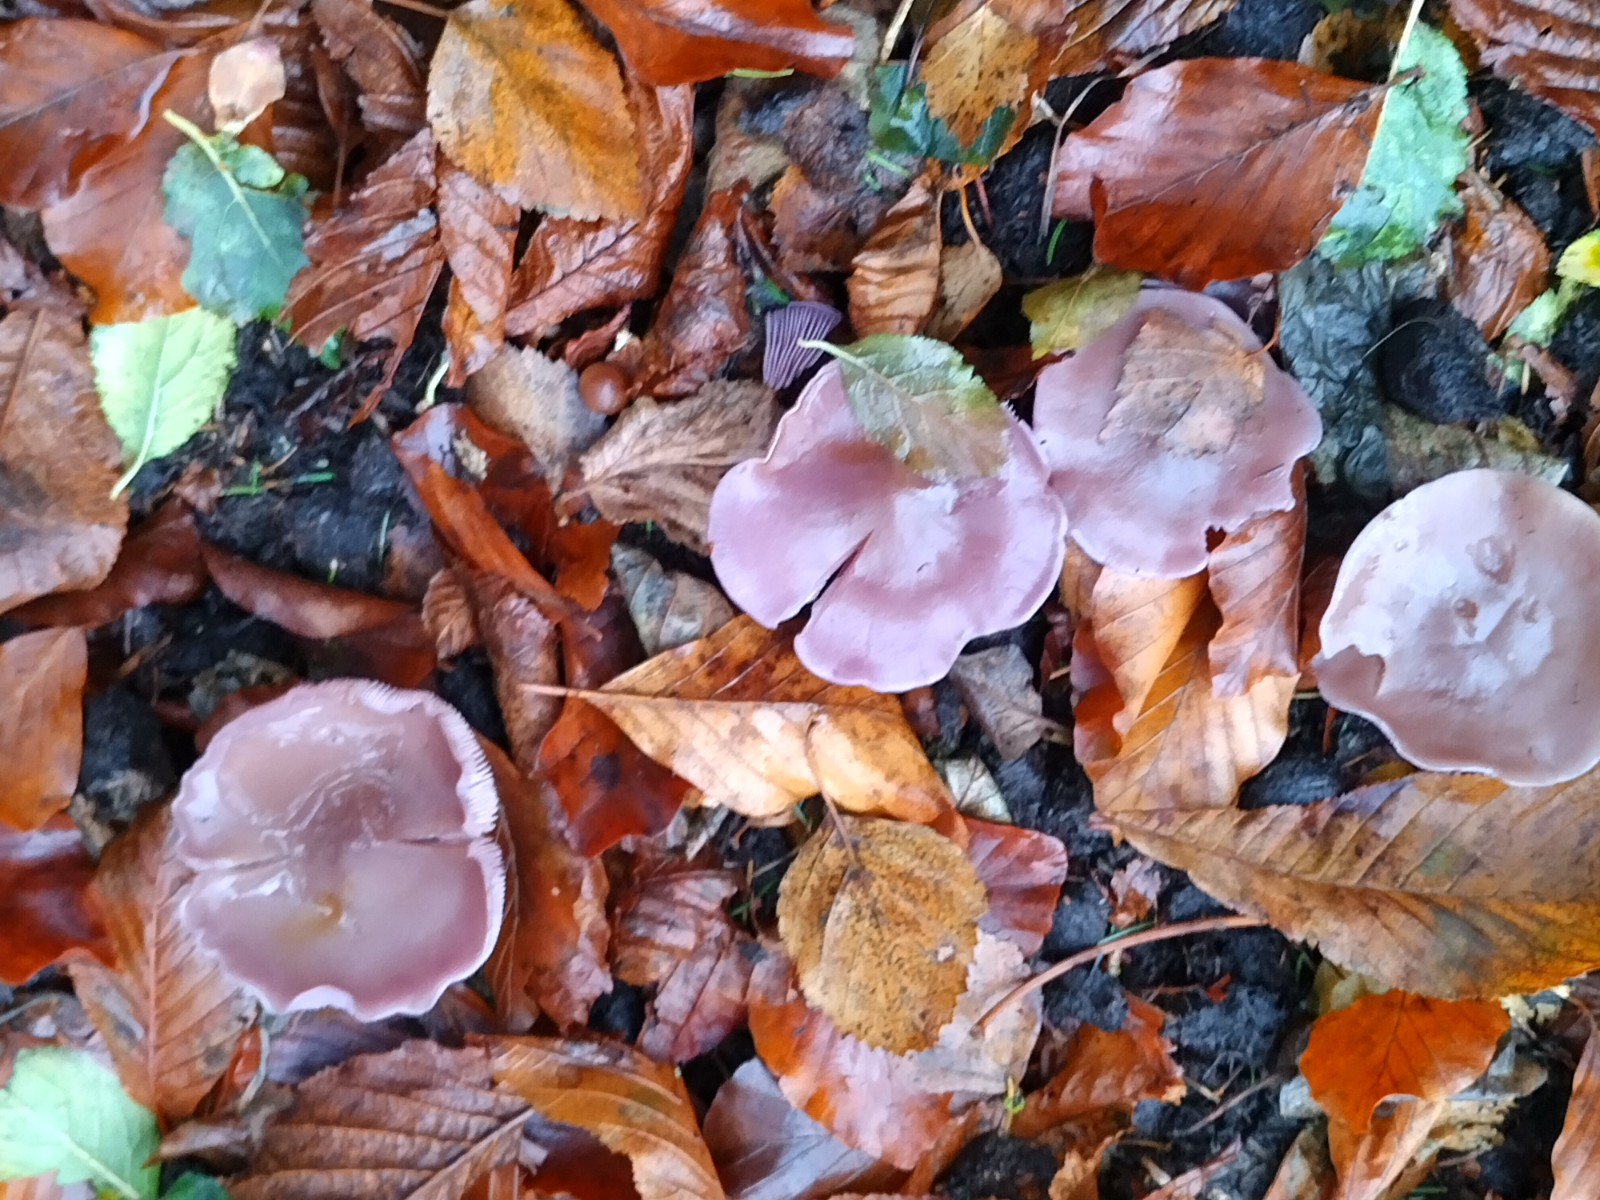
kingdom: Fungi
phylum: Basidiomycota
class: Agaricomycetes
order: Agaricales
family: Tricholomataceae
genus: Lepista
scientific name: Lepista nuda
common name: violet hekseringshat
